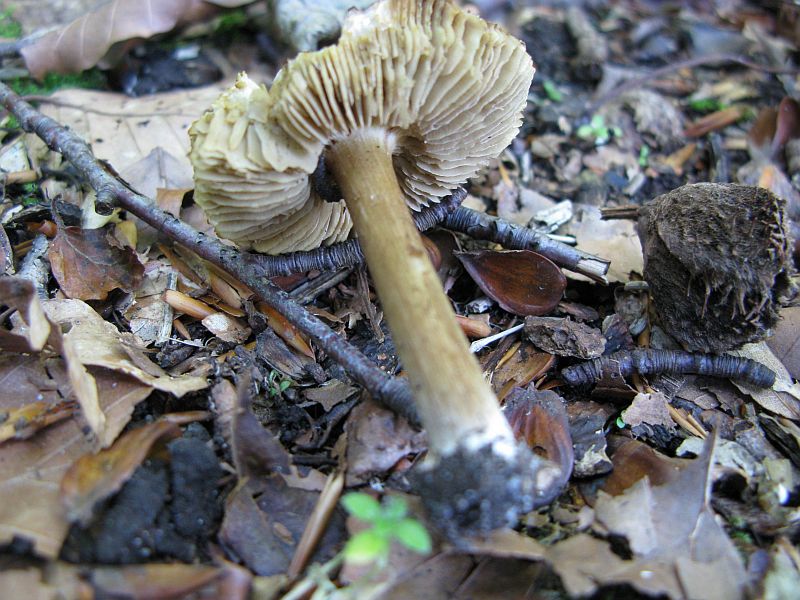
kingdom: Fungi
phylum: Basidiomycota
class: Agaricomycetes
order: Agaricales
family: Inocybaceae
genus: Pseudosperma
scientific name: Pseudosperma
